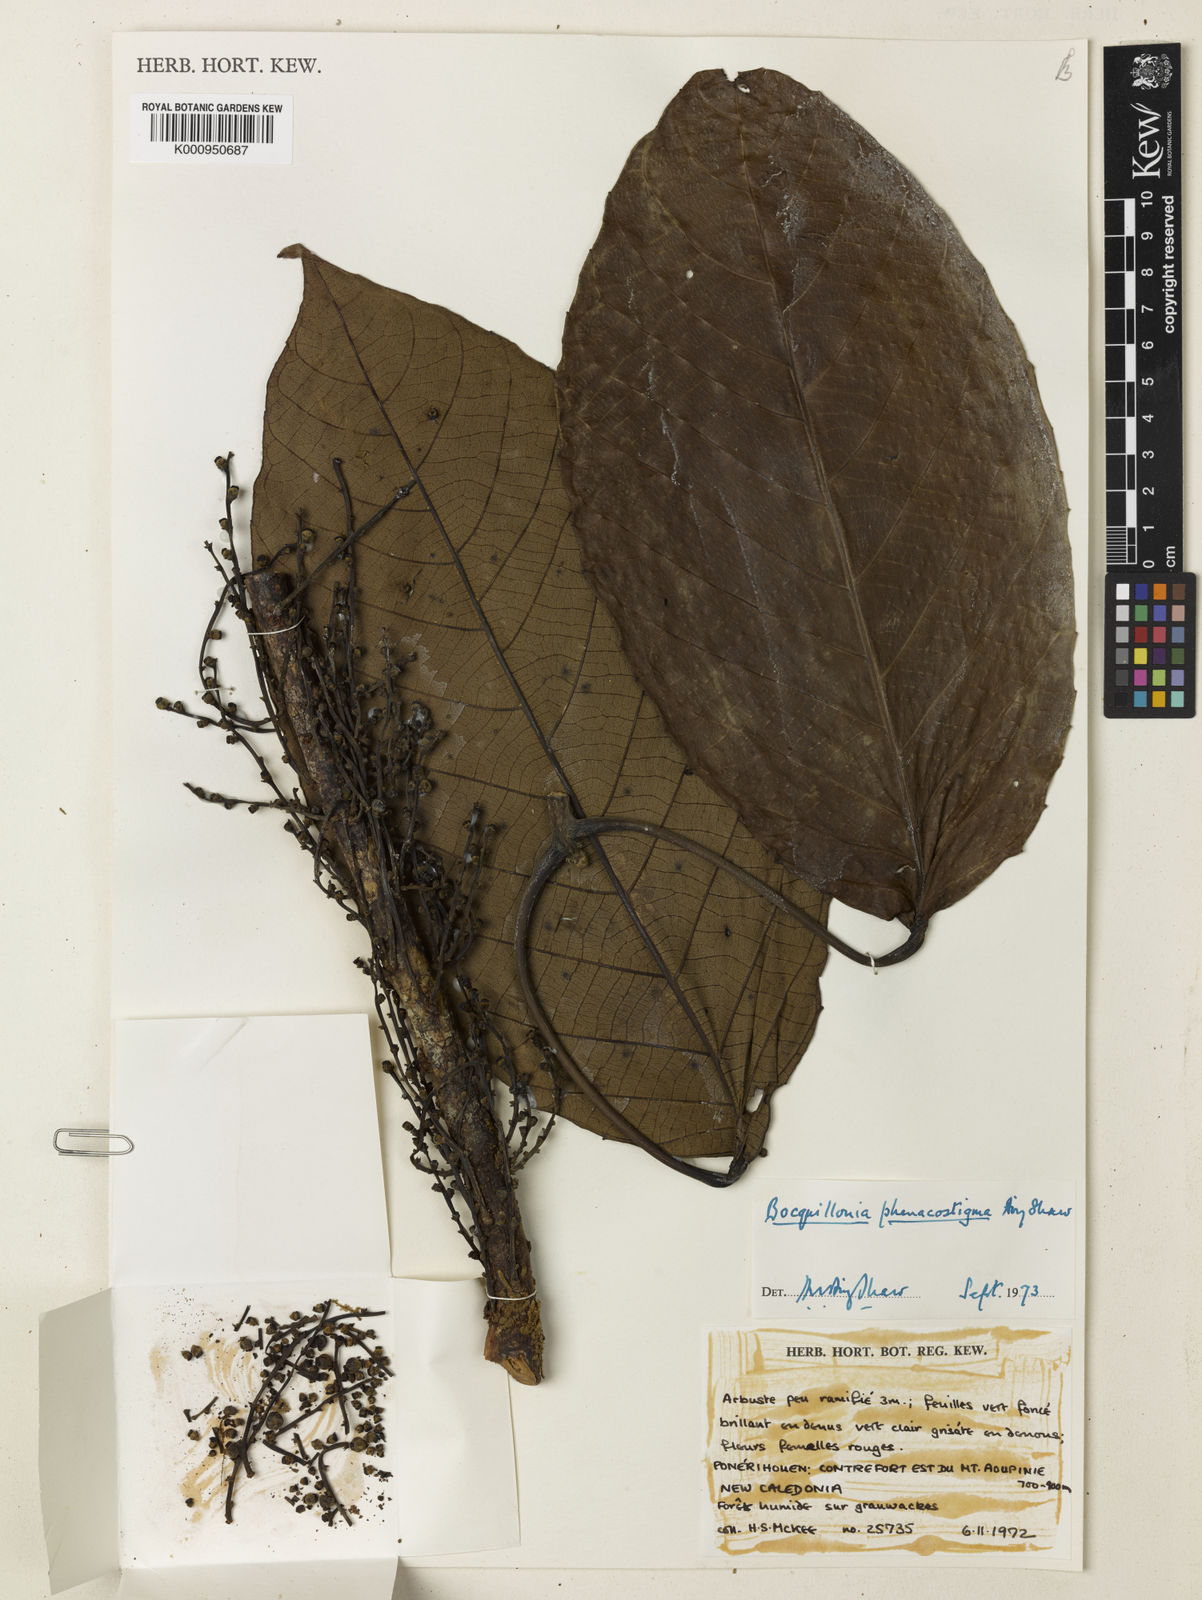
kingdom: Plantae
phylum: Tracheophyta
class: Magnoliopsida
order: Malpighiales
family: Euphorbiaceae
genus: Bocquillonia
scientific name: Bocquillonia phenacostigma
